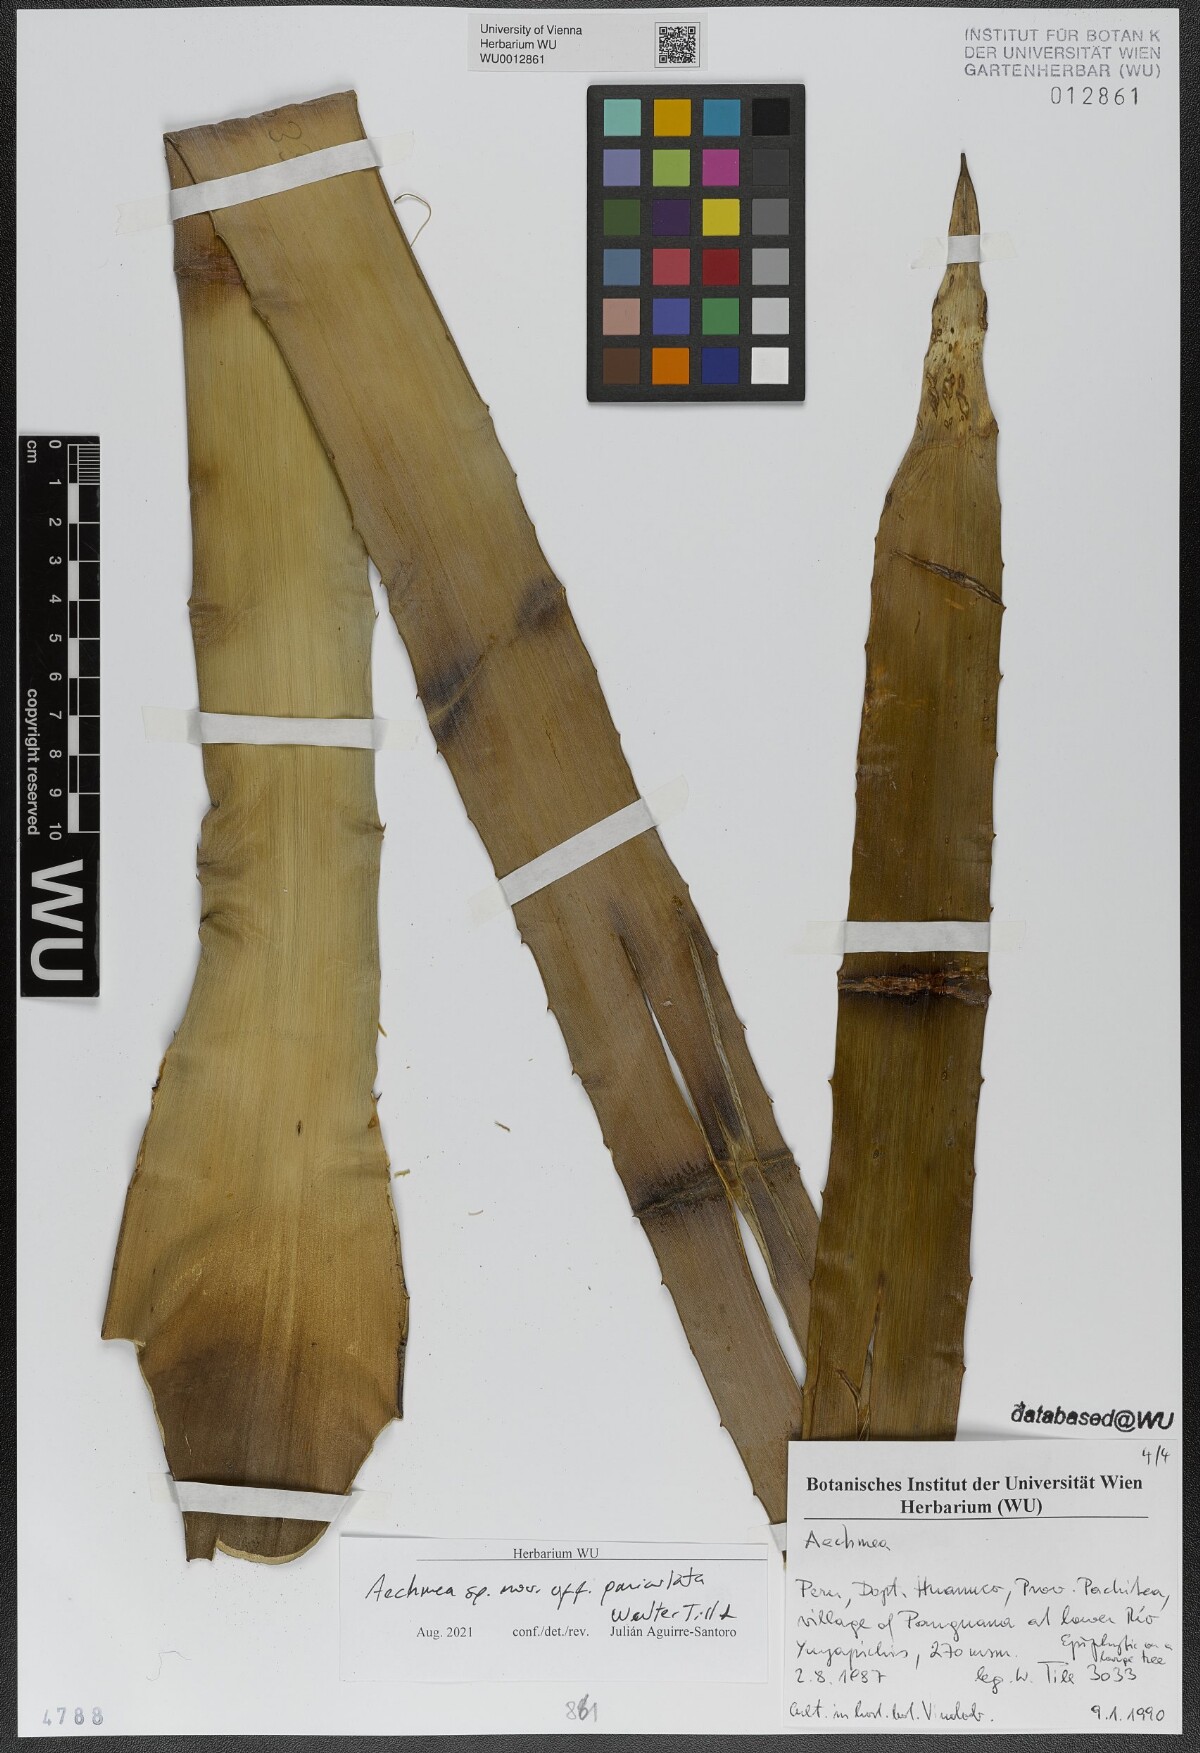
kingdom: Plantae
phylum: Tracheophyta
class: Liliopsida
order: Poales
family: Bromeliaceae
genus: Aechmea
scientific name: Aechmea
